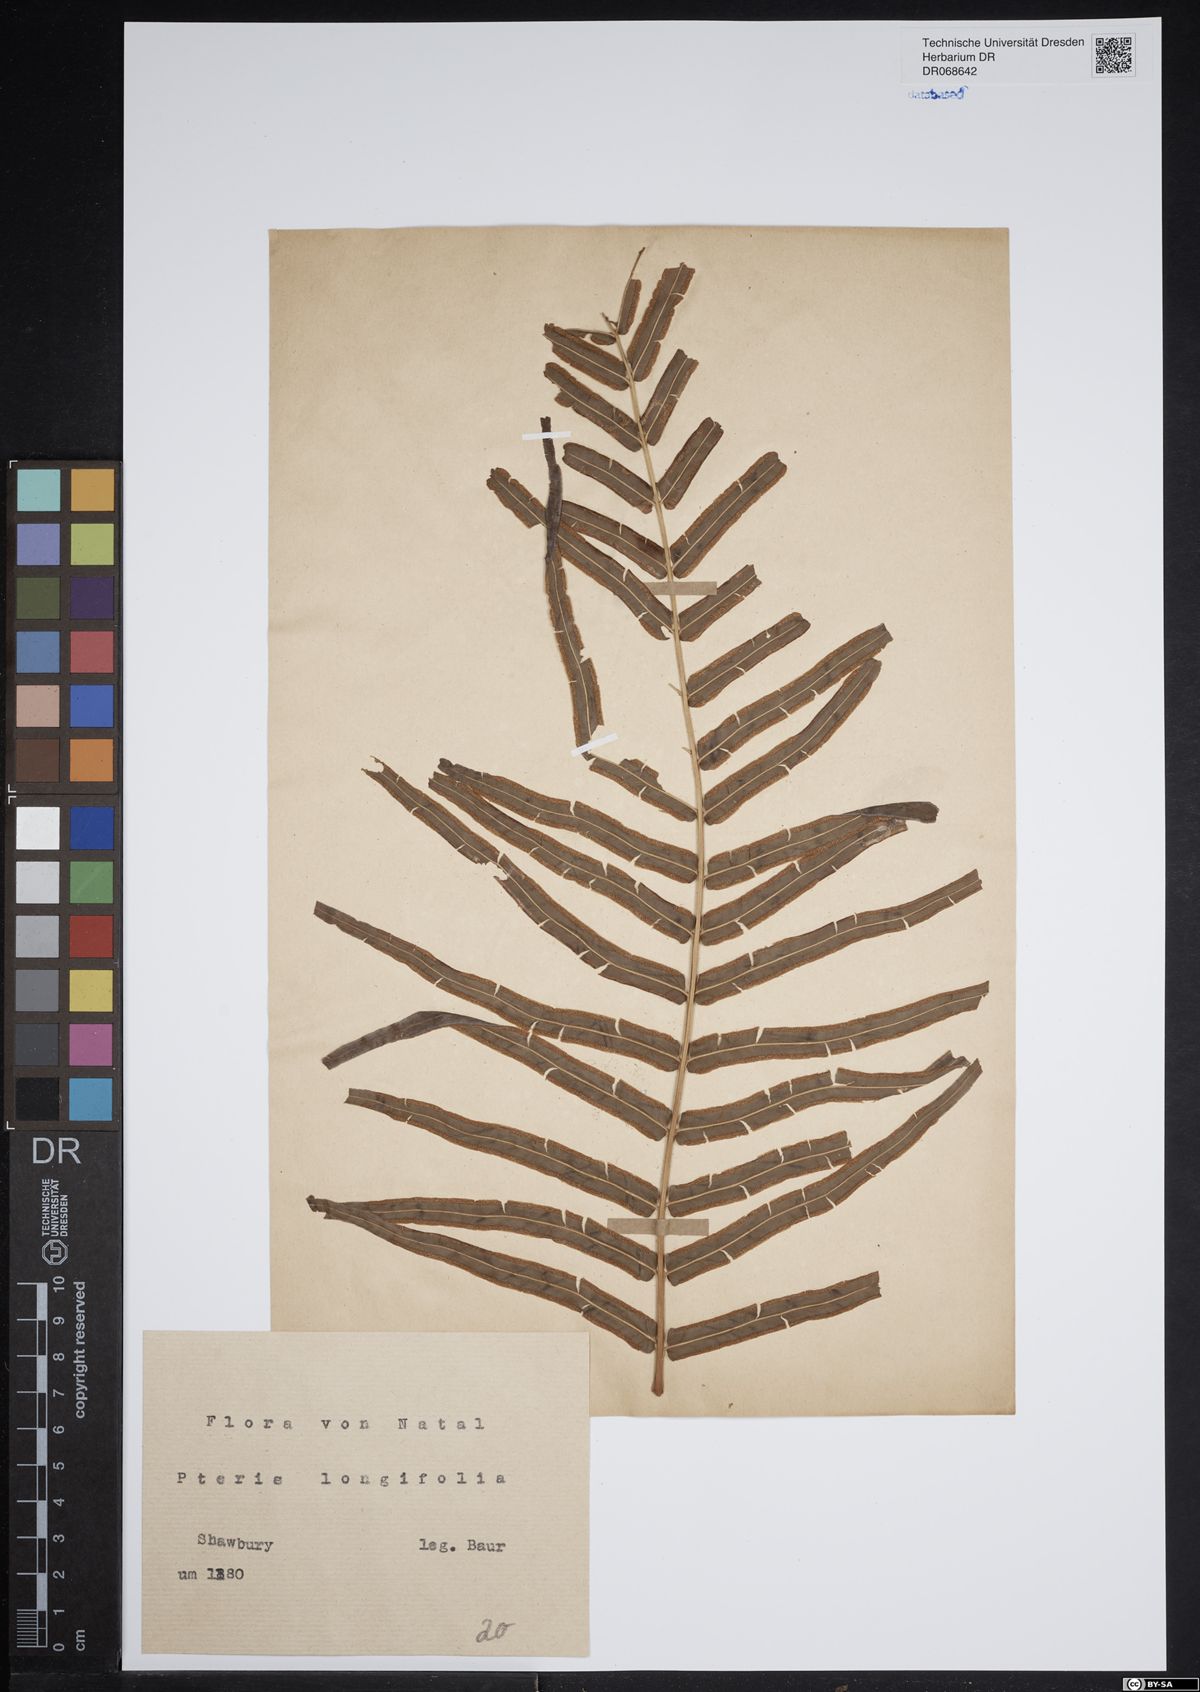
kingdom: Plantae
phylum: Tracheophyta
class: Polypodiopsida
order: Polypodiales
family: Pteridaceae
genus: Pteris
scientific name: Pteris longifolia
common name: Longleaf brake
